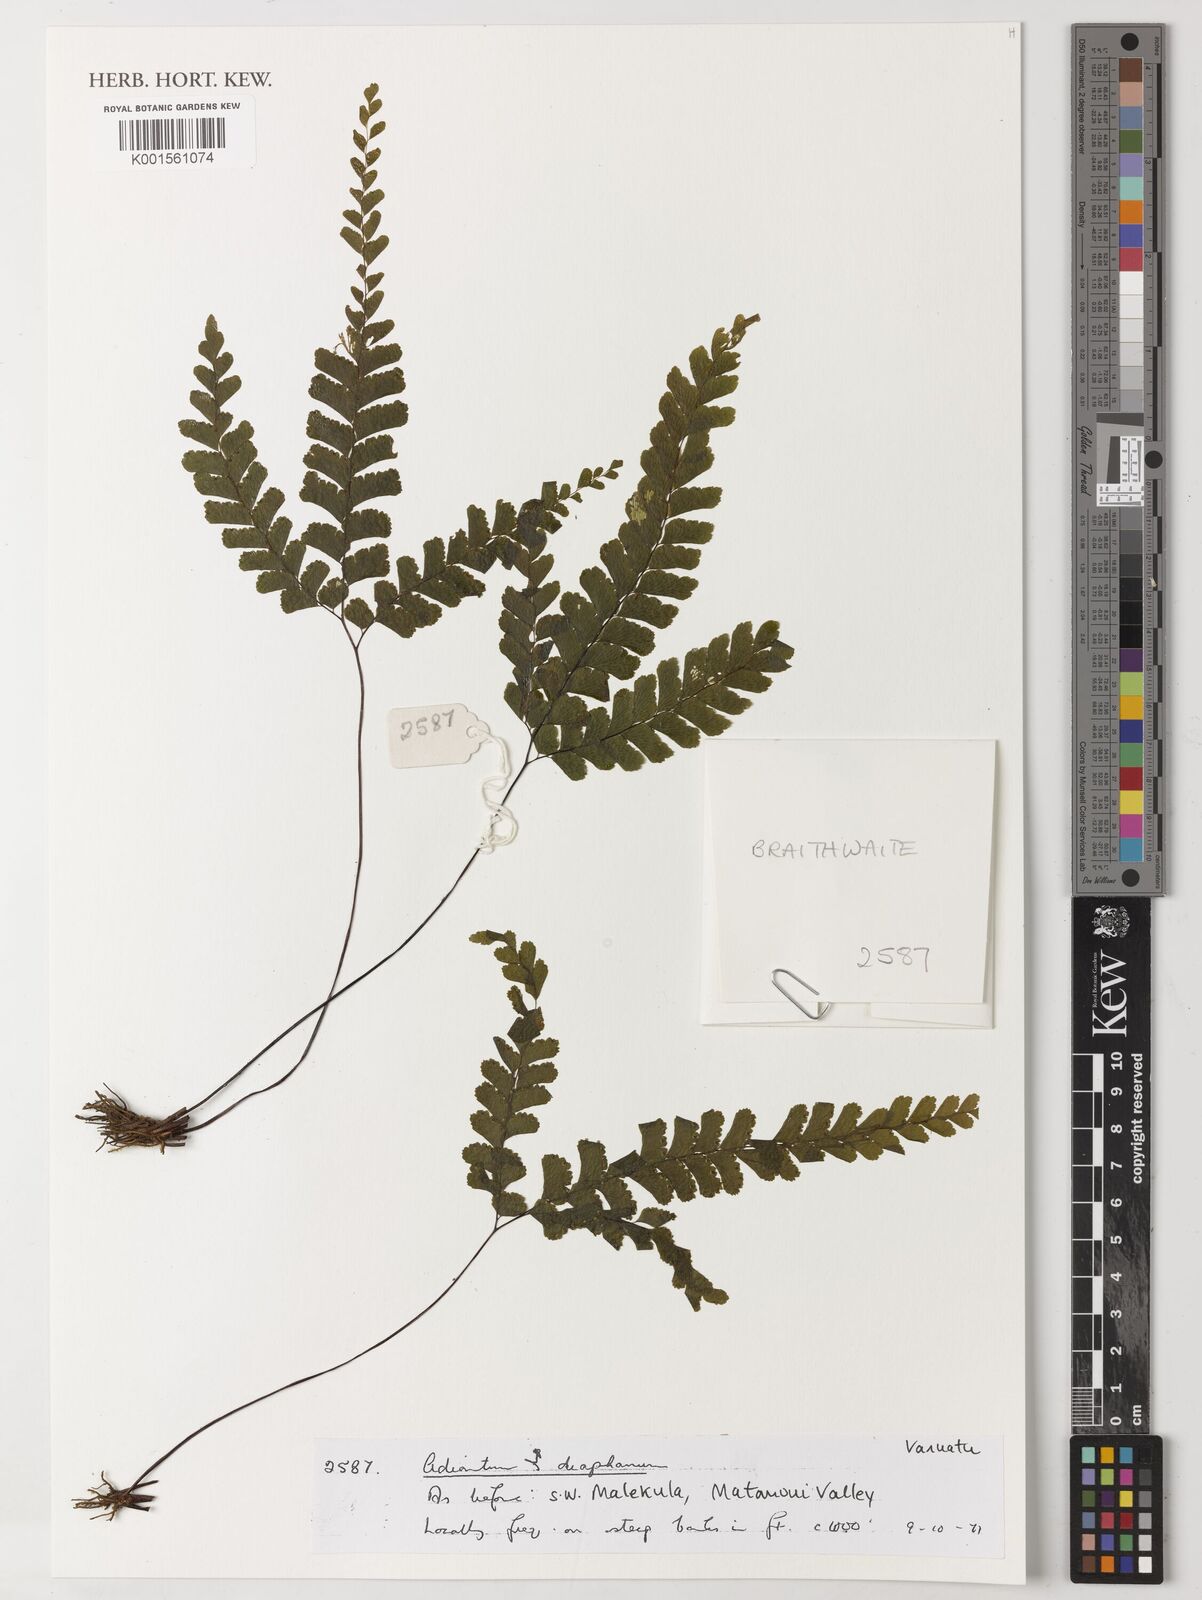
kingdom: Plantae
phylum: Tracheophyta
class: Polypodiopsida
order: Polypodiales
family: Pteridaceae
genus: Adiantum
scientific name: Adiantum diaphanum
